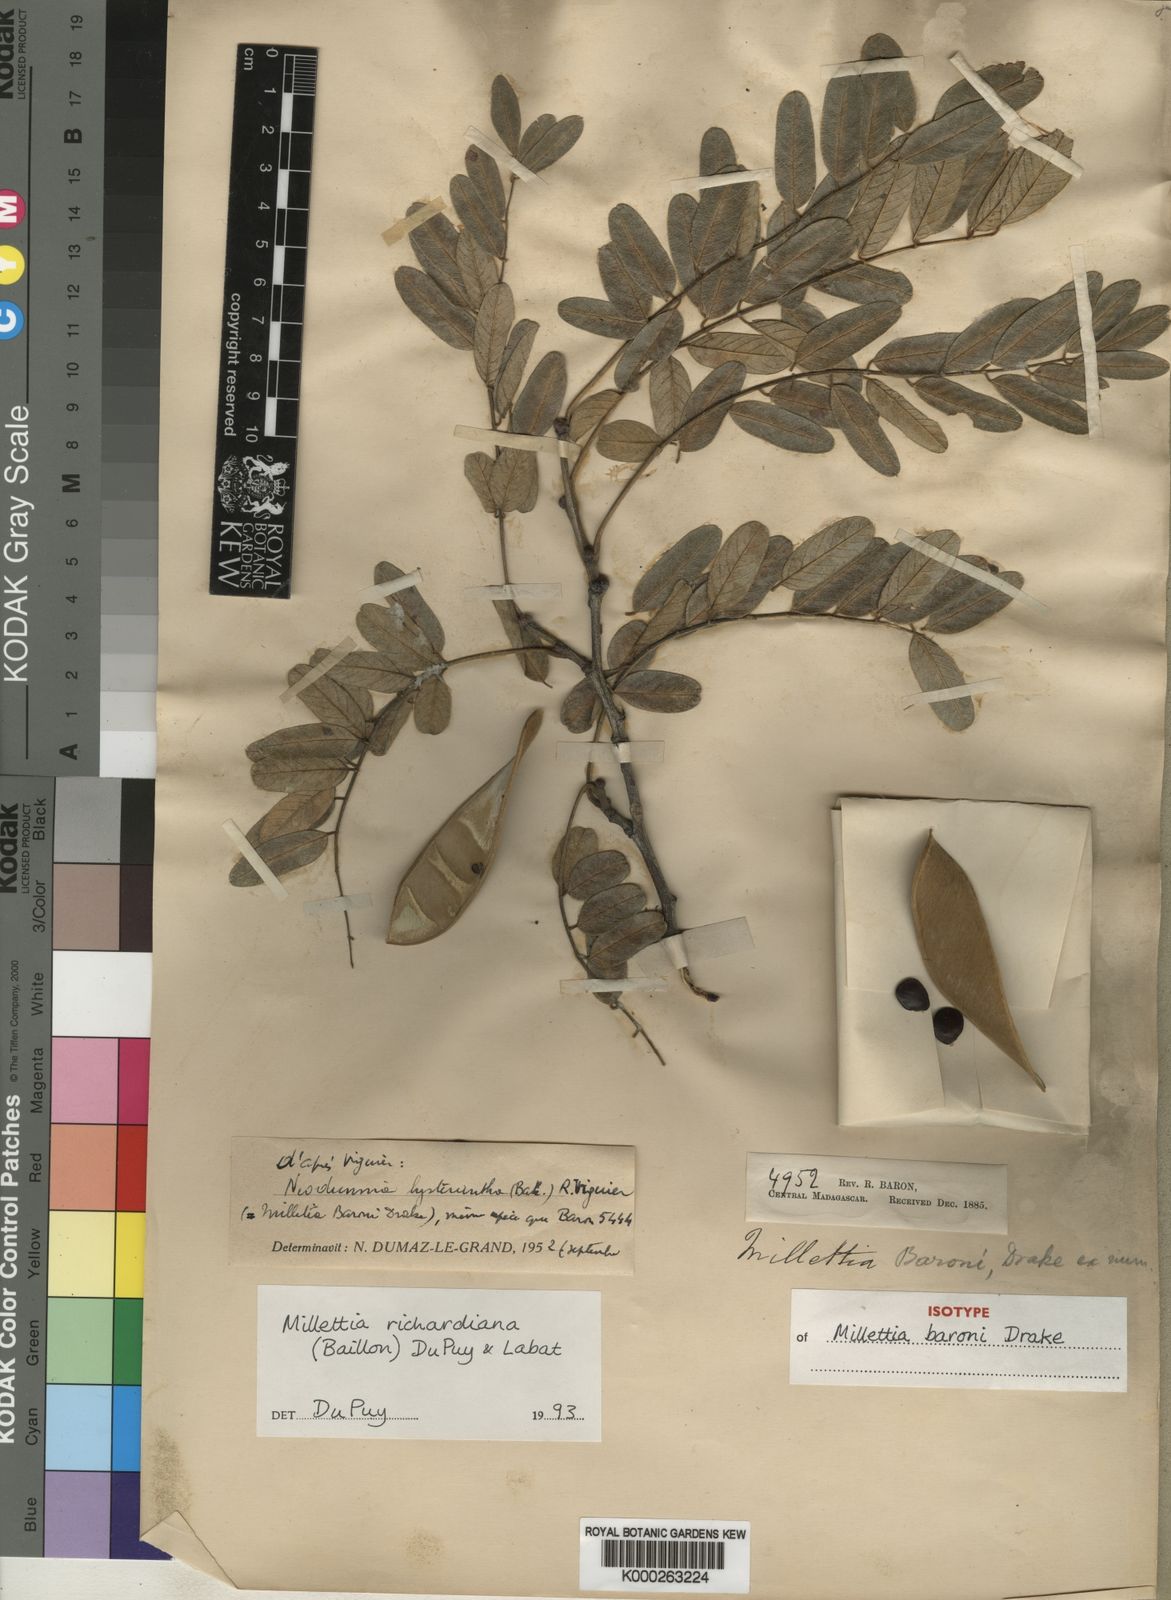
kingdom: Plantae
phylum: Tracheophyta
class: Magnoliopsida
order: Fabales
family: Fabaceae
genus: Millettia
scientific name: Millettia richardiana
